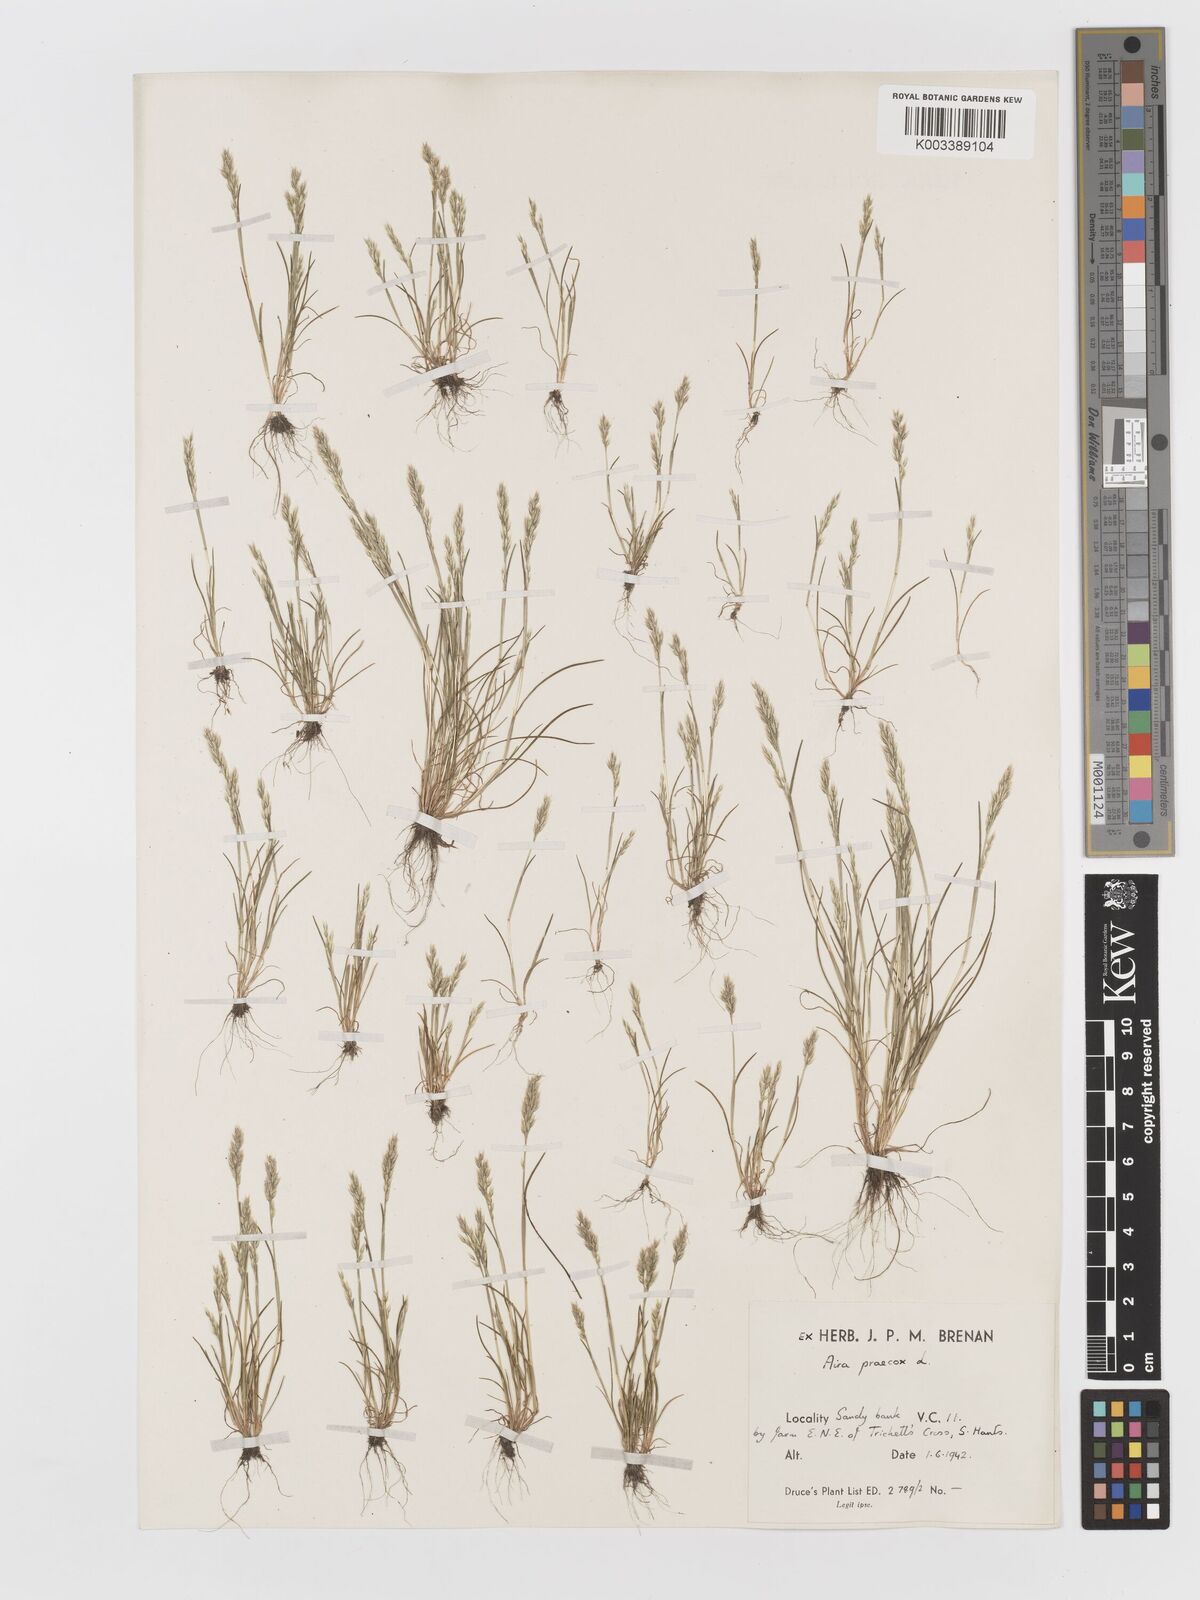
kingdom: Plantae
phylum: Tracheophyta
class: Liliopsida
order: Poales
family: Poaceae
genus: Aira
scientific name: Aira praecox
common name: Early hair-grass
